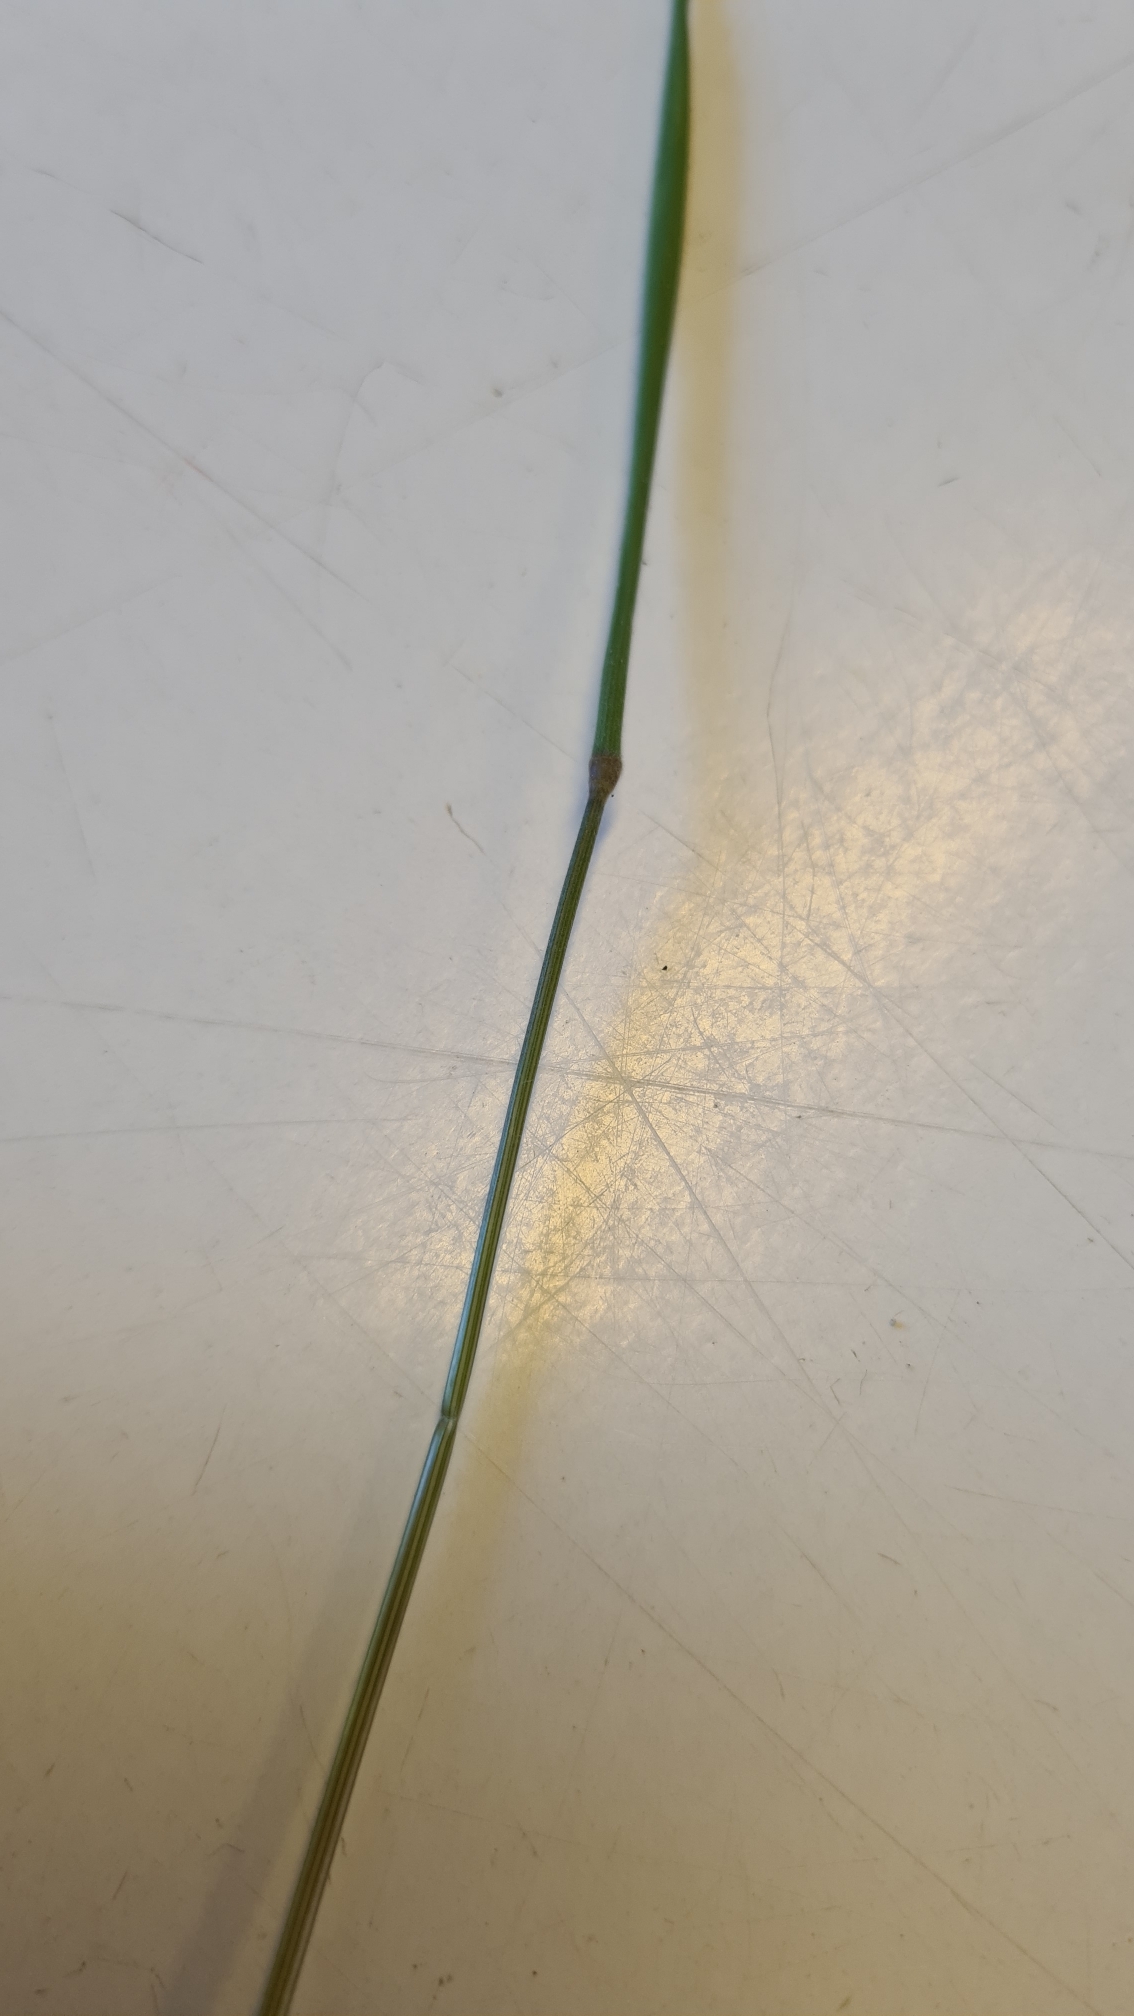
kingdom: Plantae
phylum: Tracheophyta
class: Liliopsida
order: Poales
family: Poaceae
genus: Holcus
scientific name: Holcus lanatus
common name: Fløjlsgræs
